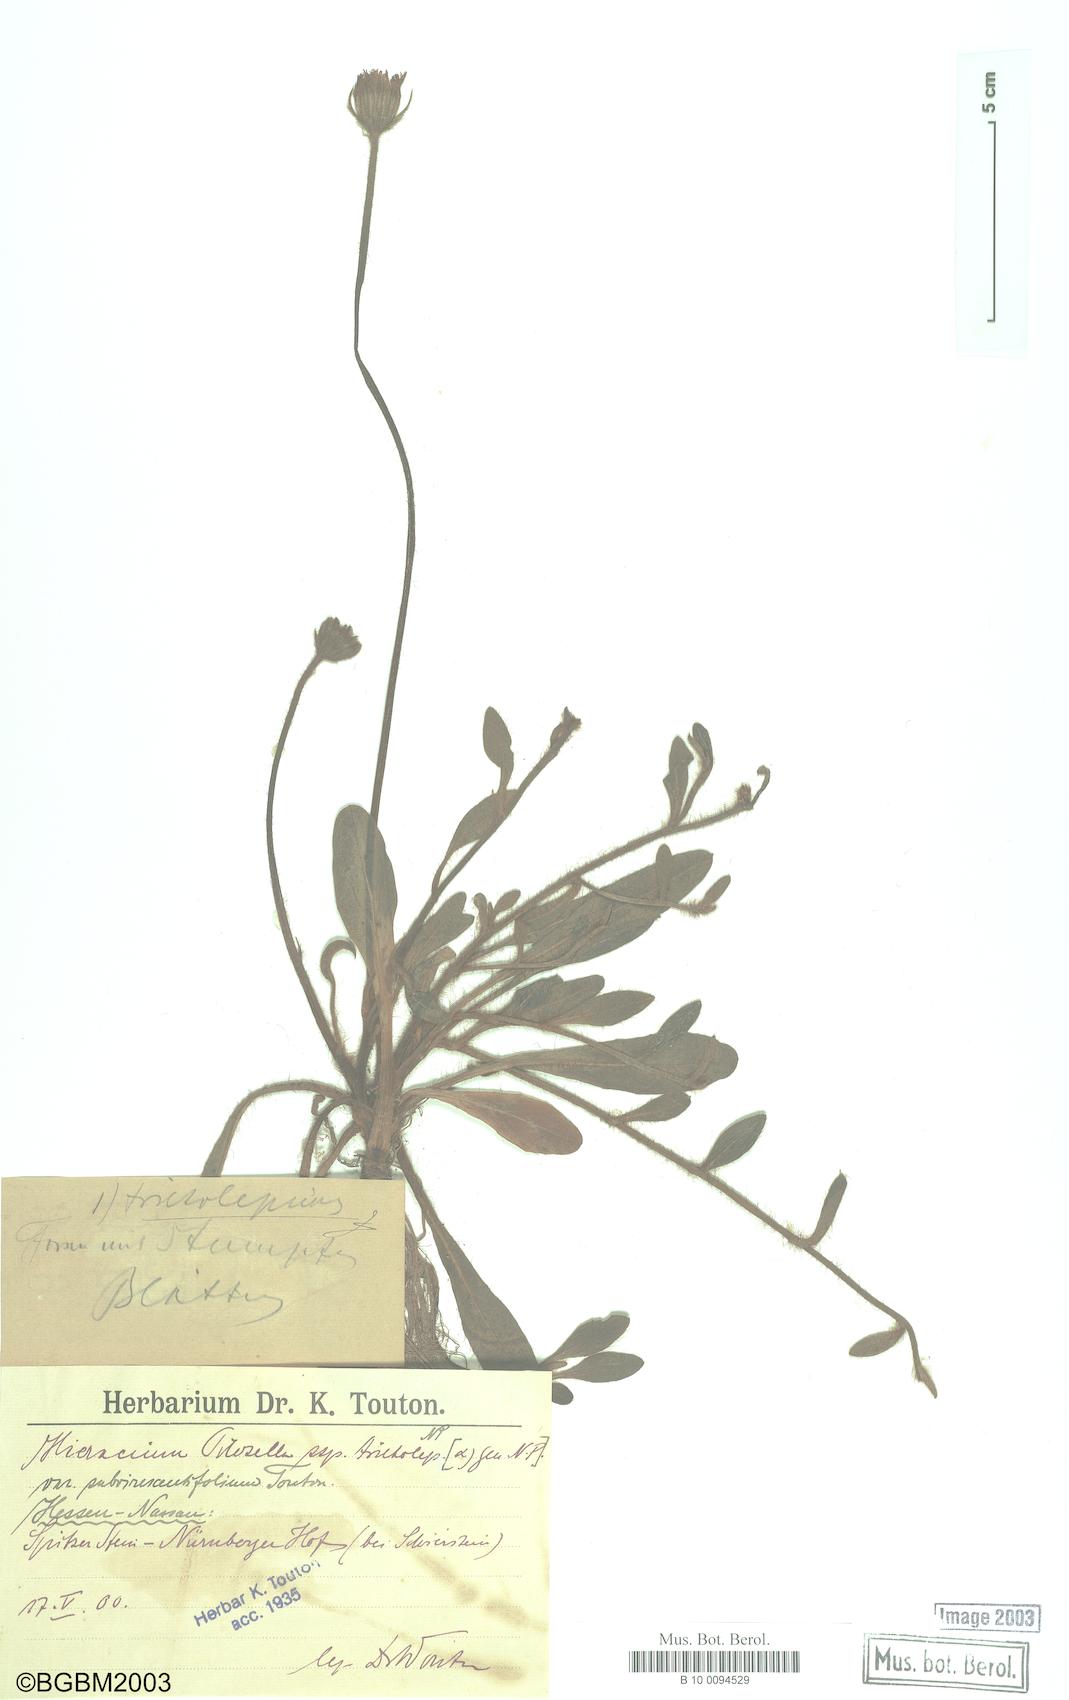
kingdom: Plantae
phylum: Tracheophyta
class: Magnoliopsida
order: Asterales
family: Asteraceae
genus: Pilosella
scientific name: Pilosella officinarum
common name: Mouse-ear hawkweed
